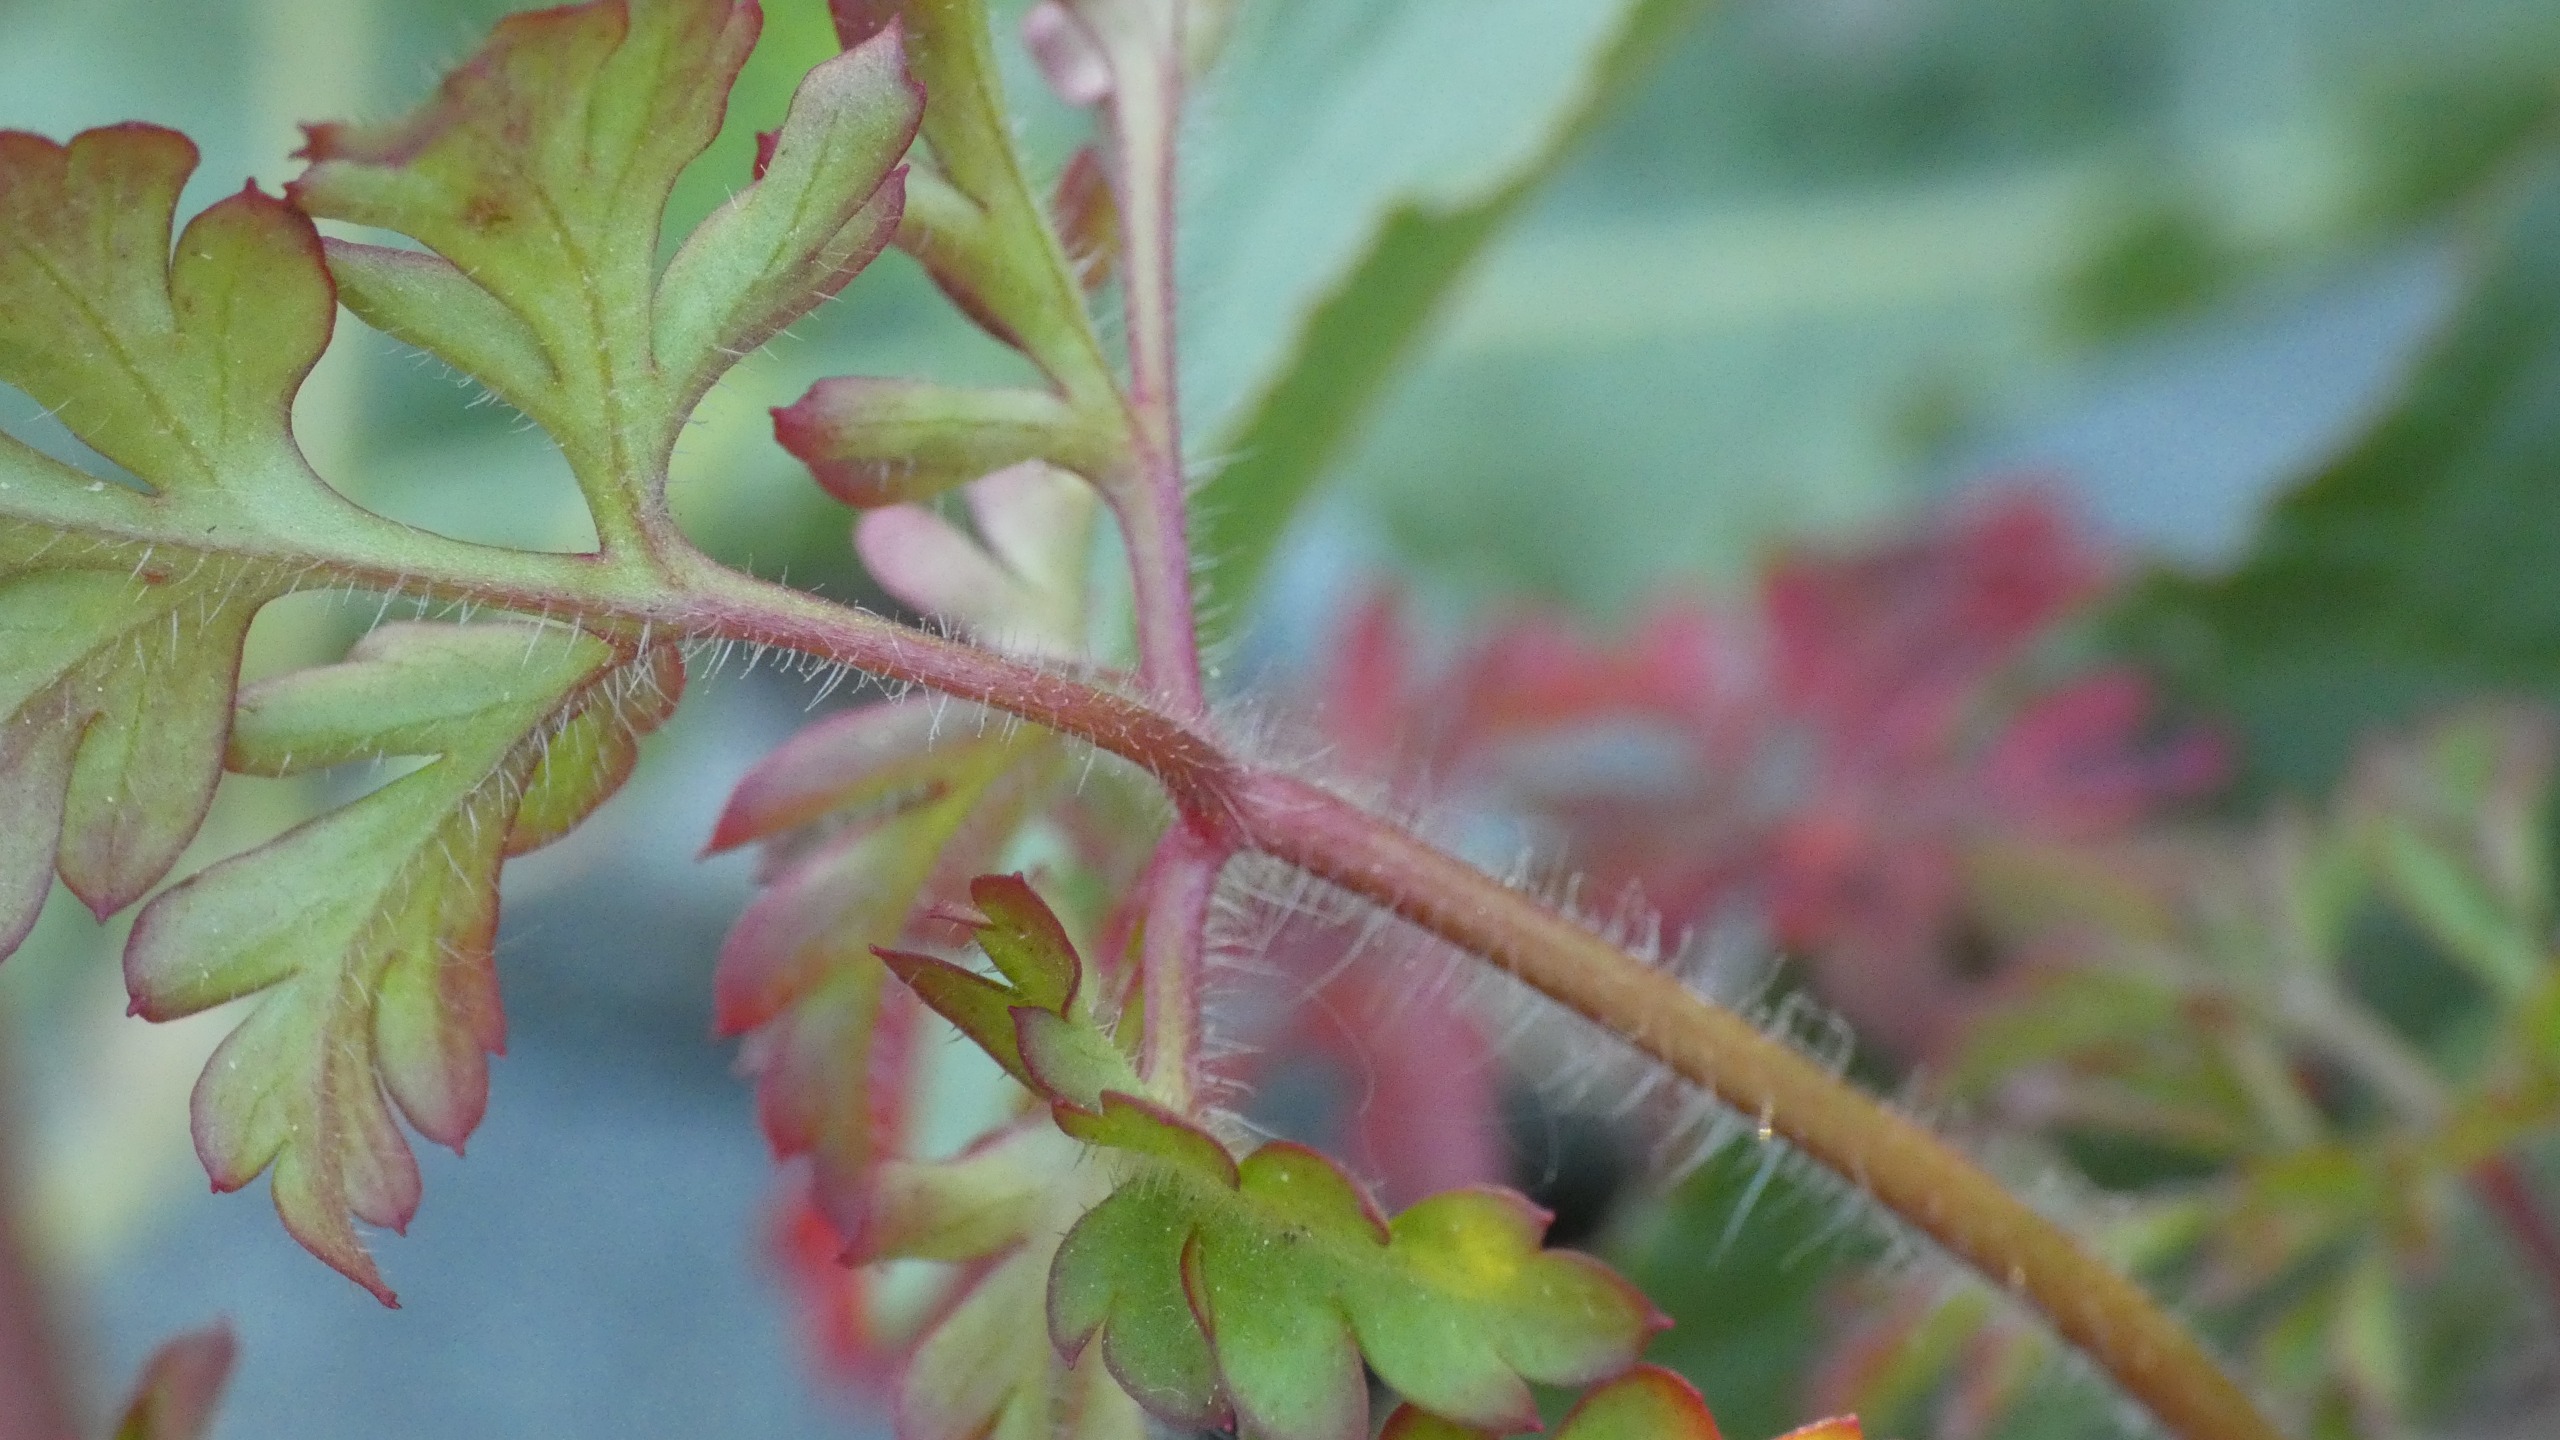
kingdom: Plantae
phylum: Tracheophyta
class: Magnoliopsida
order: Geraniales
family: Geraniaceae
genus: Geranium
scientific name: Geranium robertianum
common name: Stinkende storkenæb
